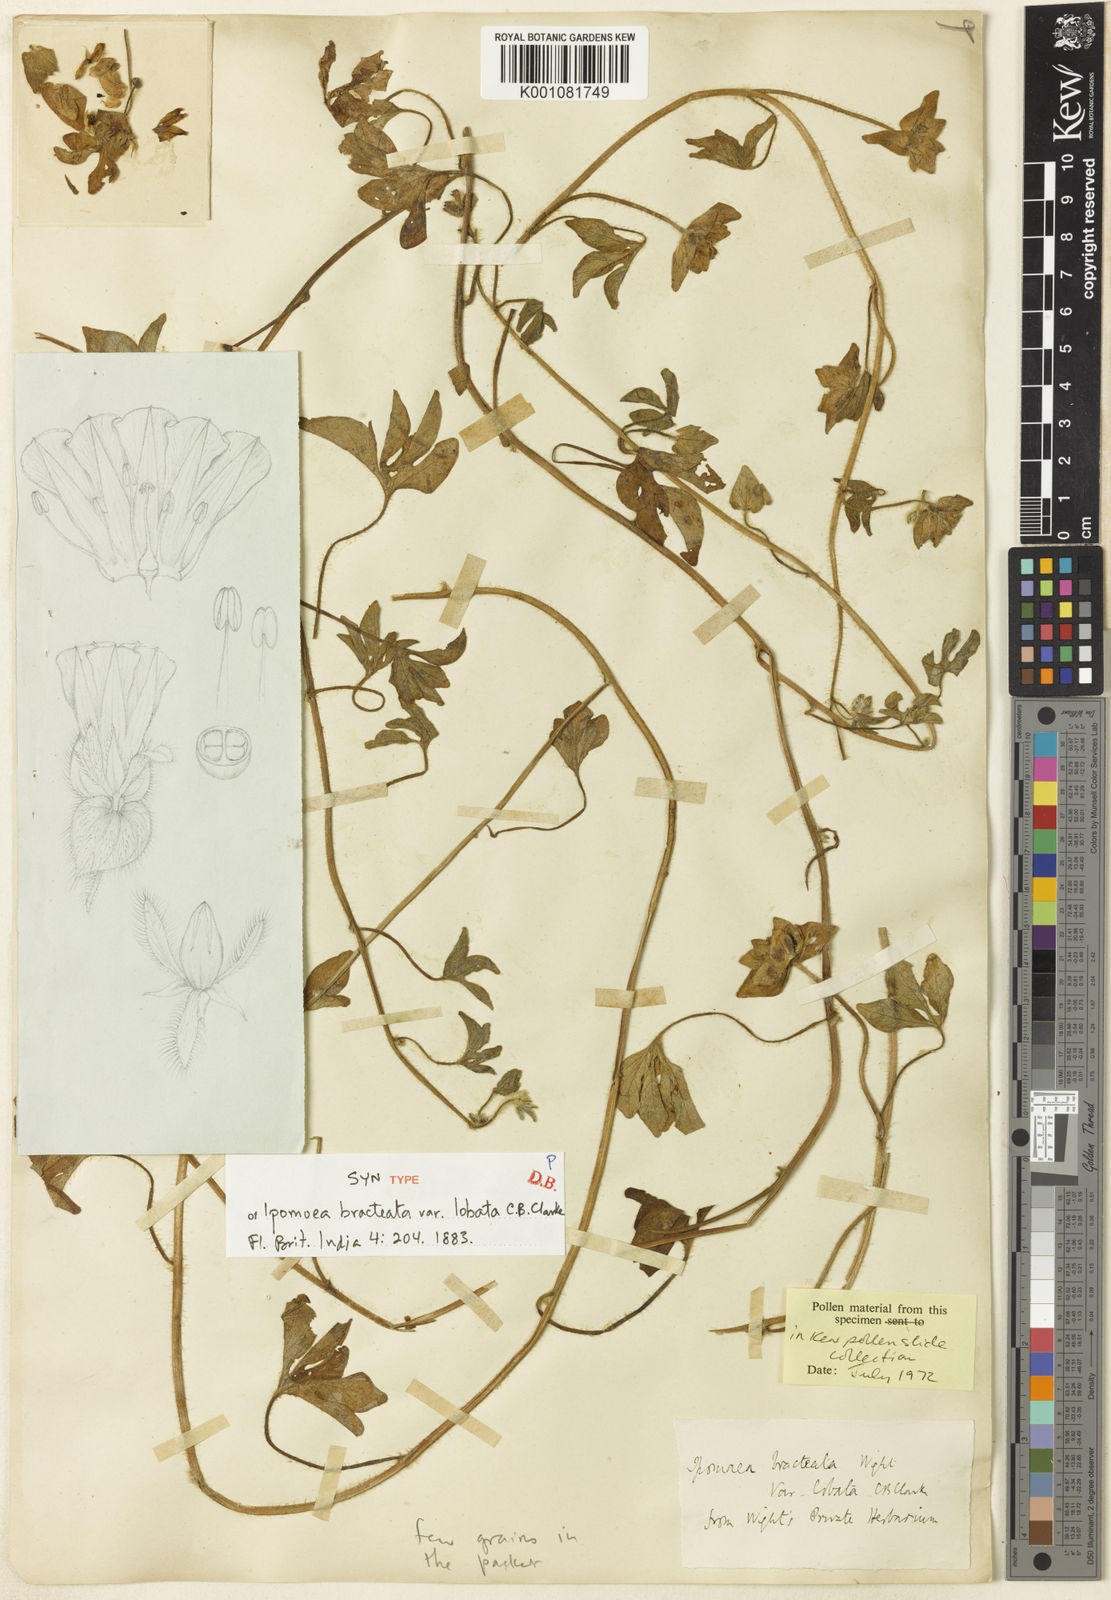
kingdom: Plantae
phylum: Tracheophyta
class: Magnoliopsida
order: Solanales
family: Convolvulaceae
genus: Ipomoea
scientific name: Ipomoea bracteata
